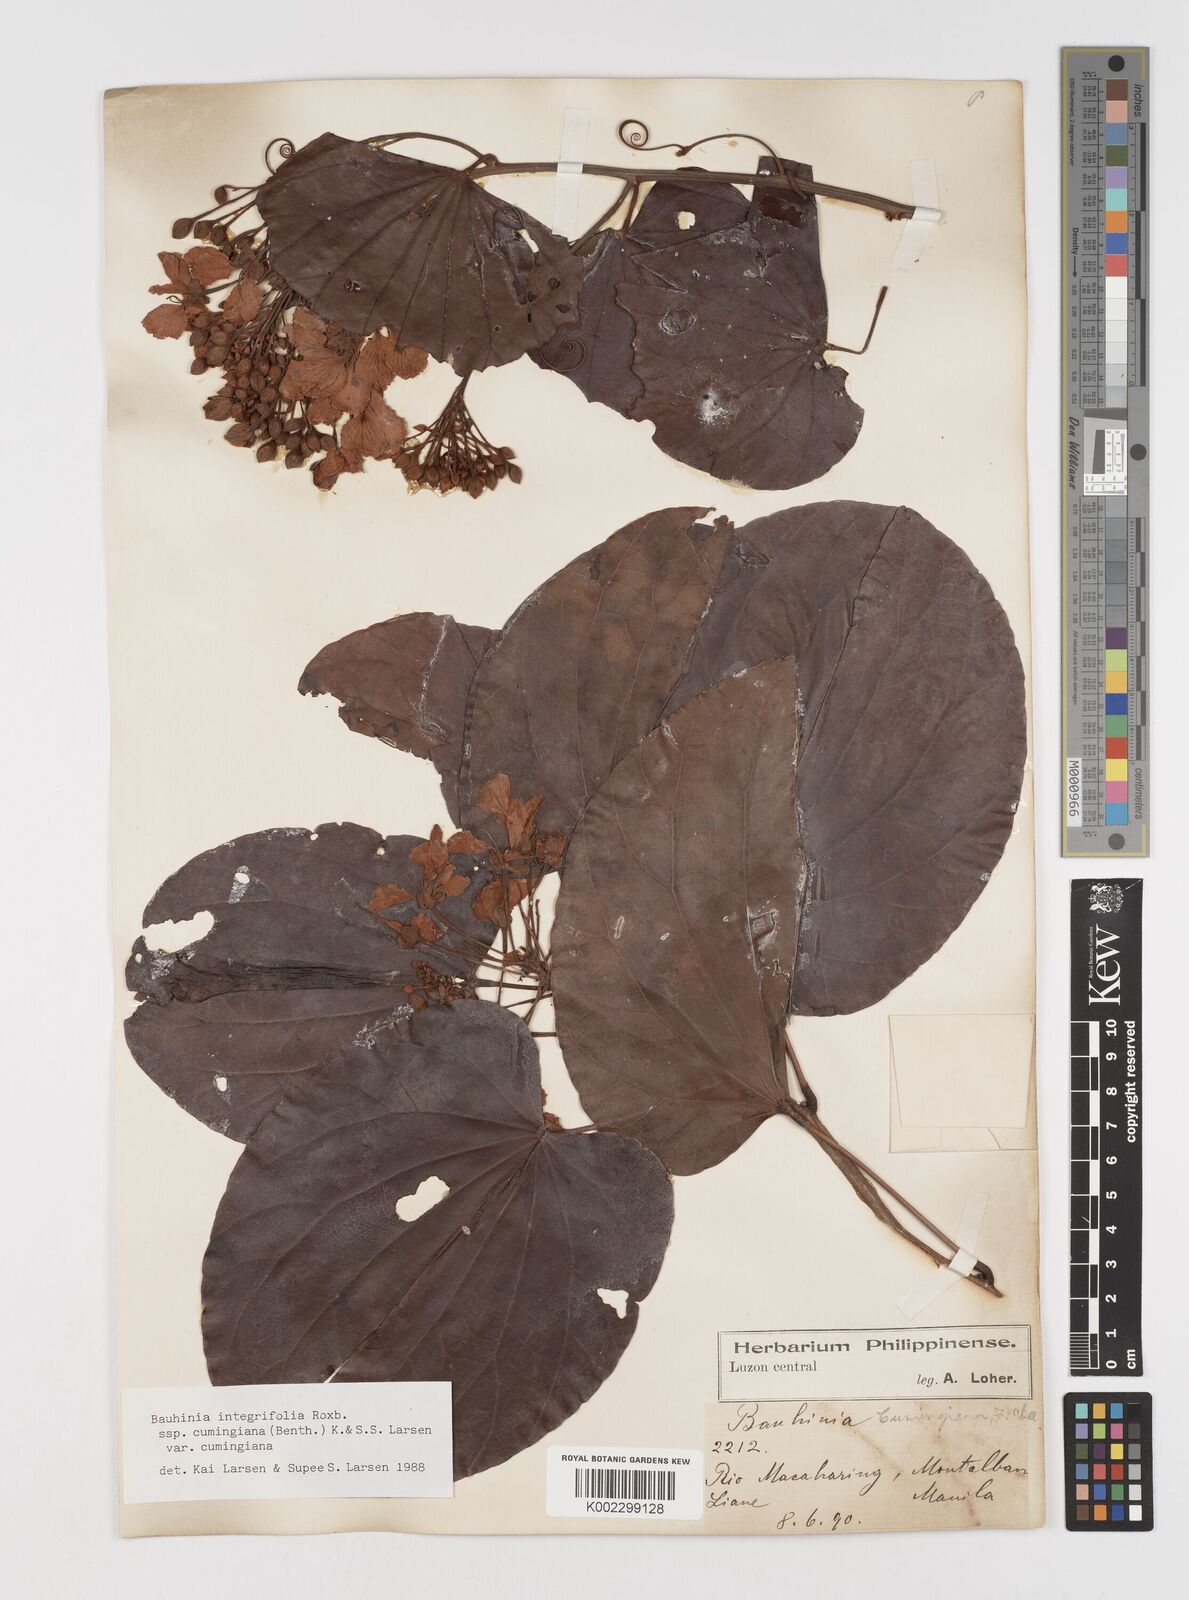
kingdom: Plantae
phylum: Tracheophyta
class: Magnoliopsida
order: Fabales
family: Fabaceae
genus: Phanera
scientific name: Phanera integrifolia
